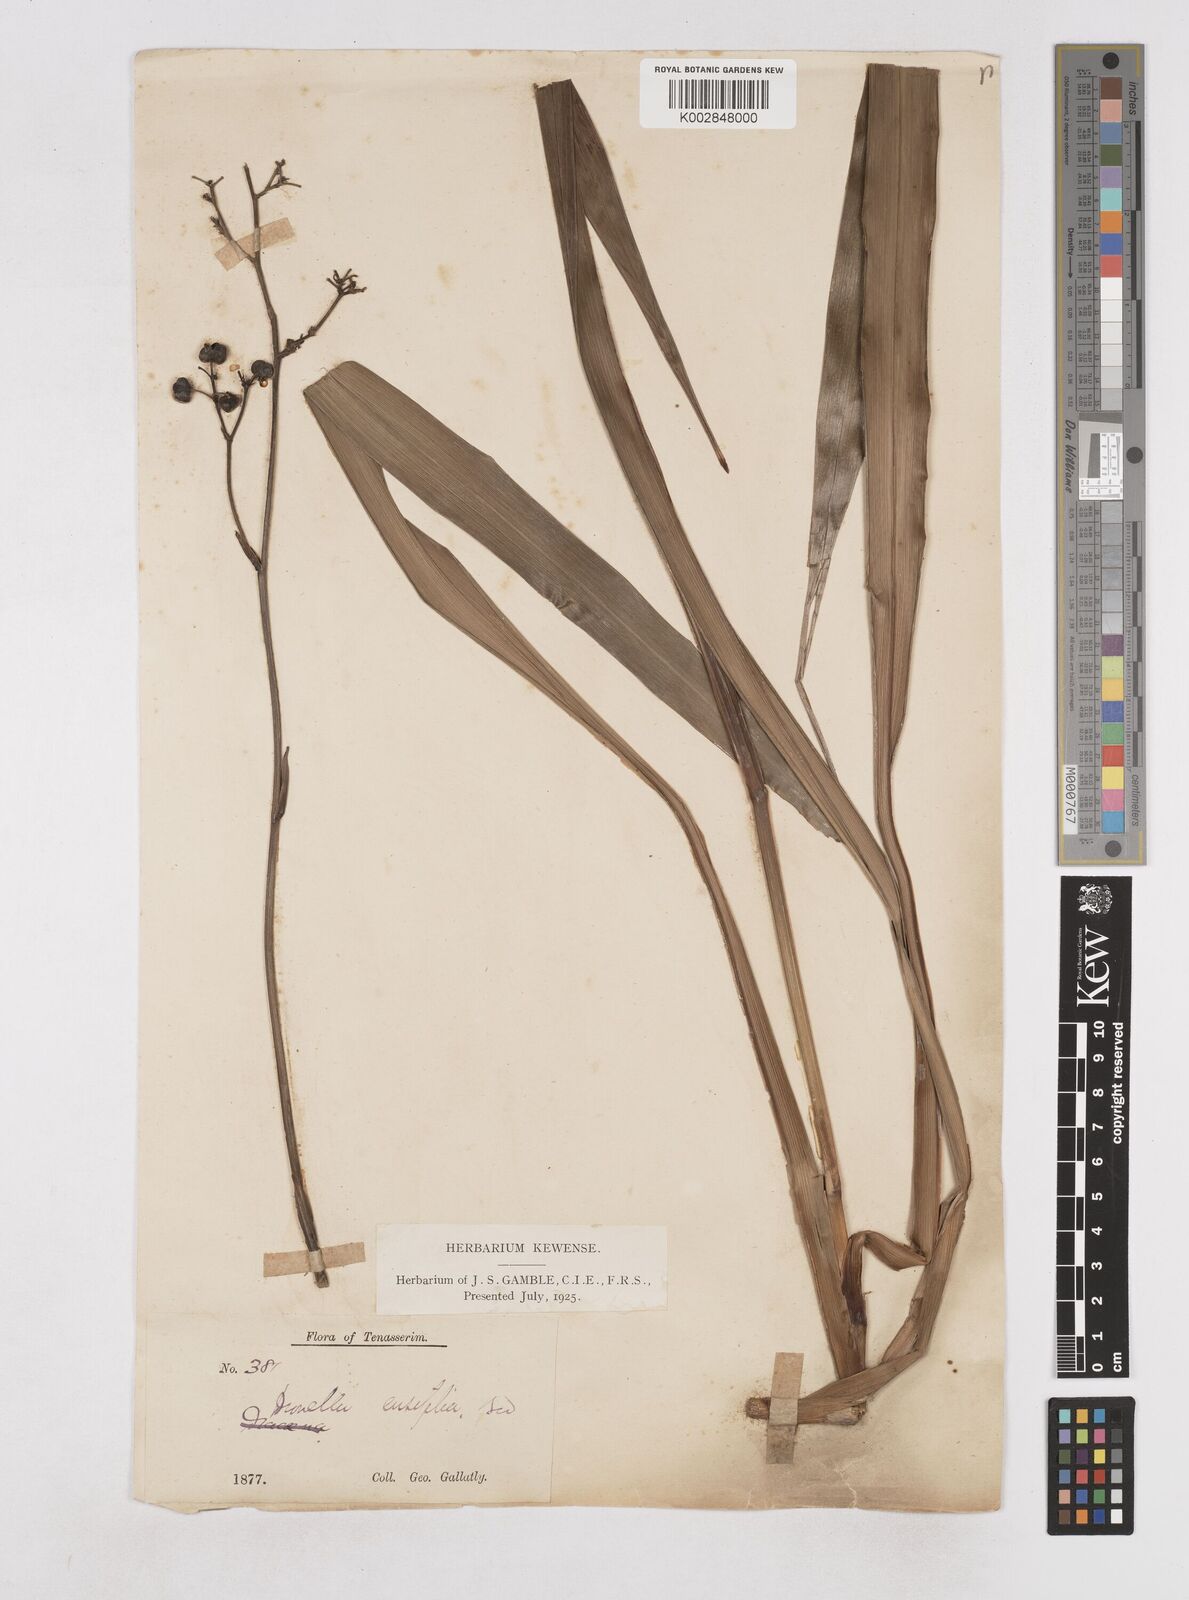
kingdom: Plantae
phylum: Tracheophyta
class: Liliopsida
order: Asparagales
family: Asphodelaceae
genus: Dianella
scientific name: Dianella ensifolia
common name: New zealand lilyplant
